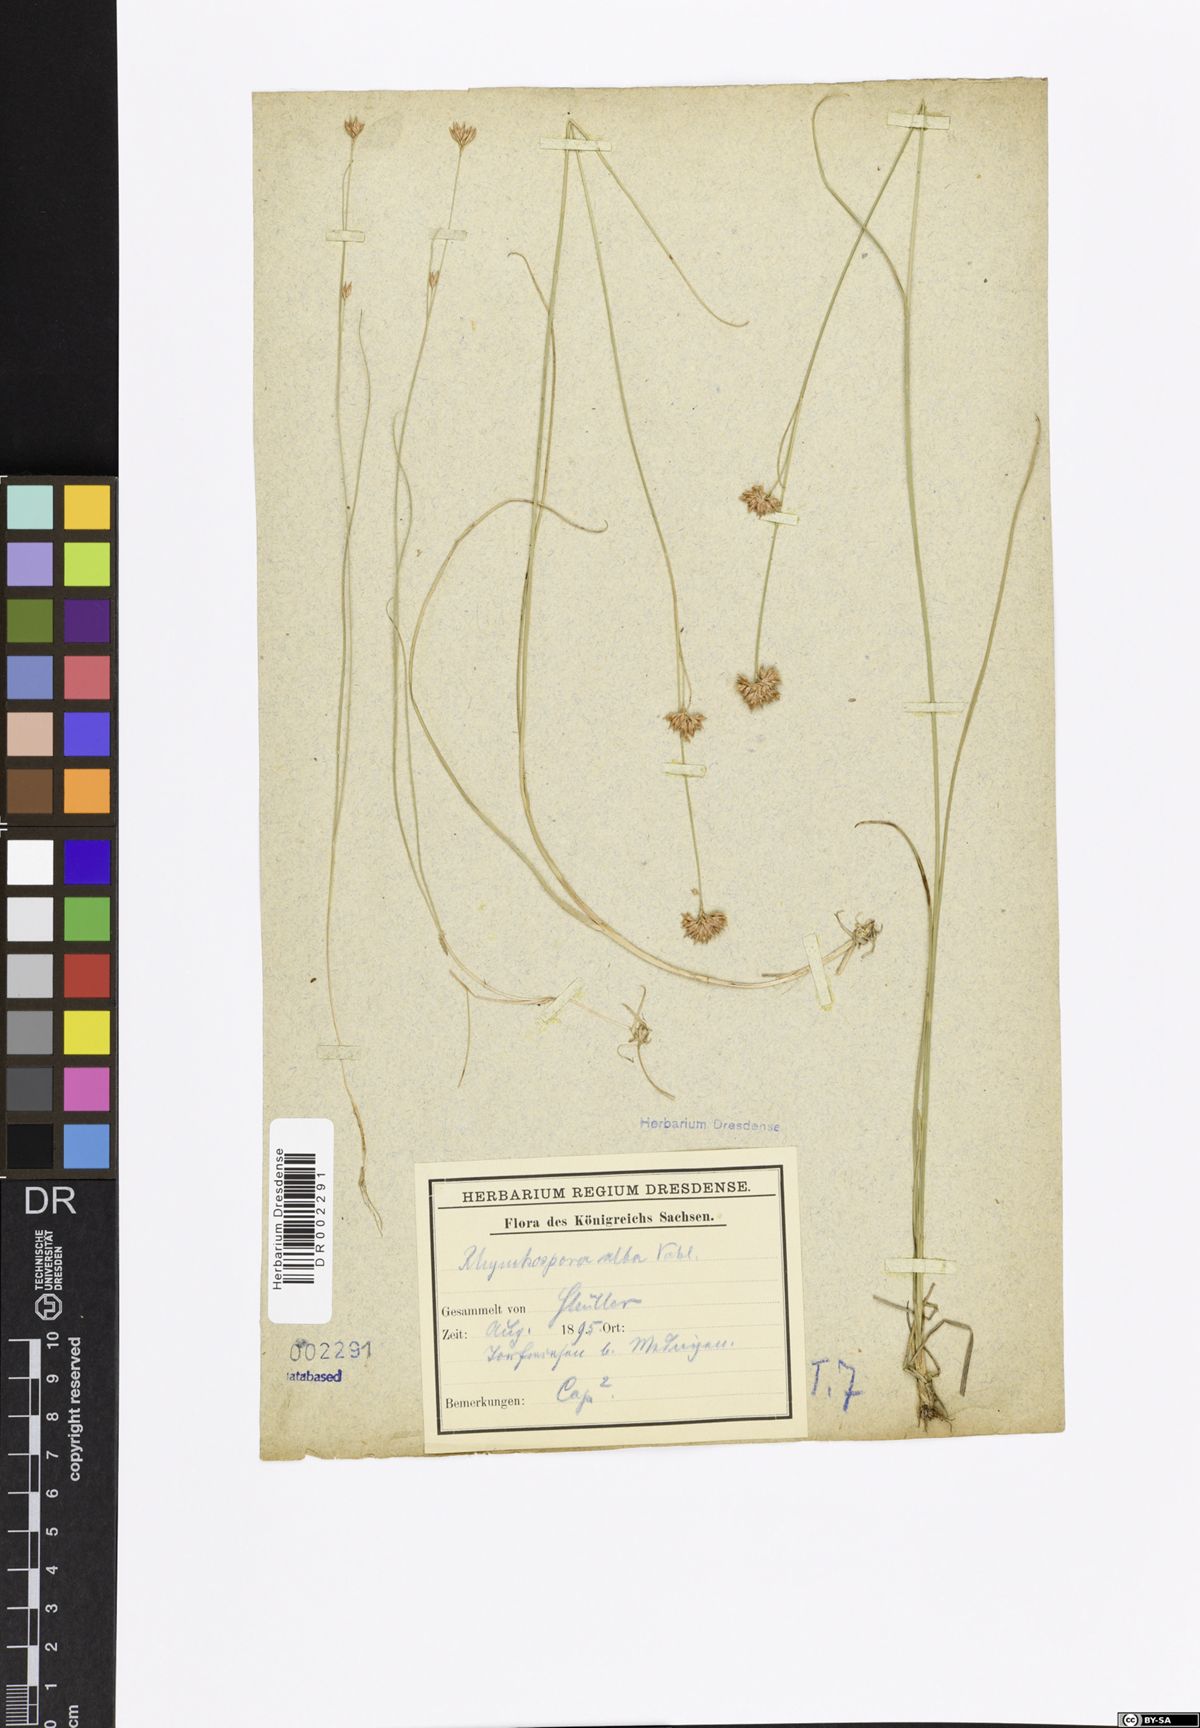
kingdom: Plantae
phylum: Tracheophyta
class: Liliopsida
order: Poales
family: Cyperaceae
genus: Rhynchospora
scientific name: Rhynchospora alba
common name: White beak-sedge
